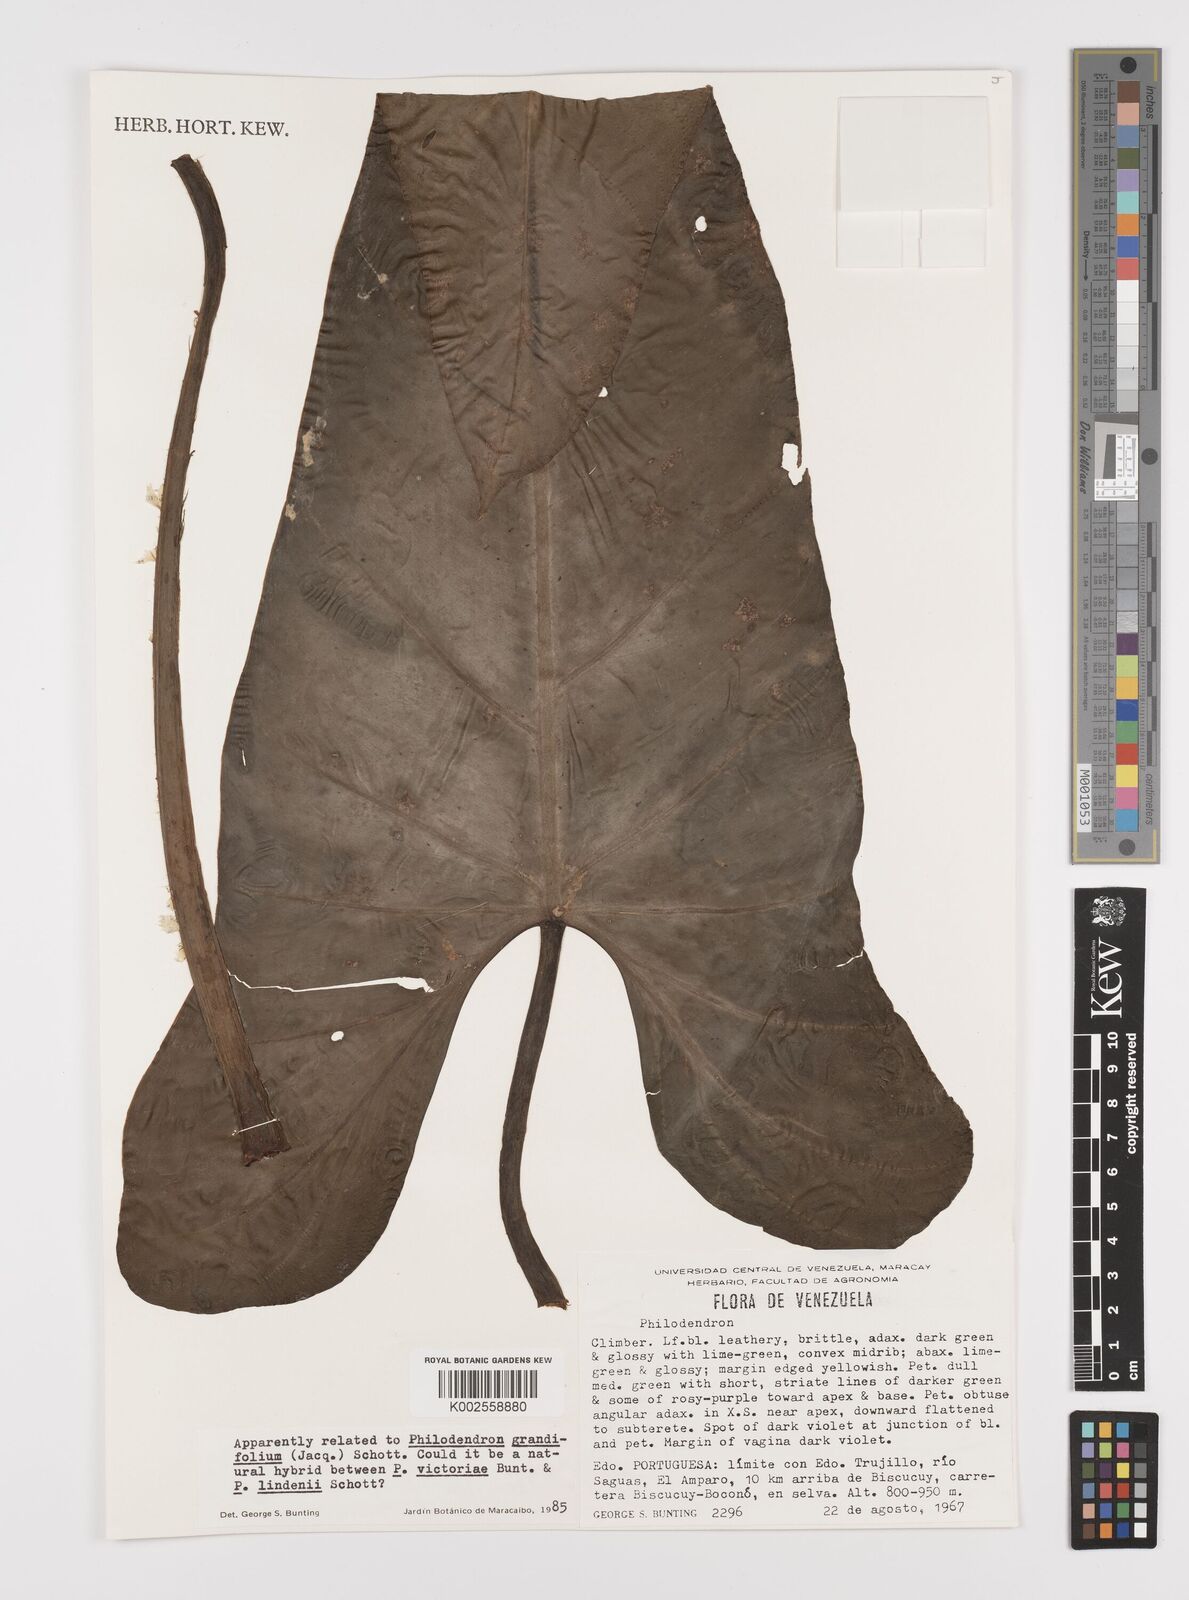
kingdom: Plantae
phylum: Tracheophyta
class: Liliopsida
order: Alismatales
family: Araceae
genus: Philodendron
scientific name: Philodendron grandifolium
